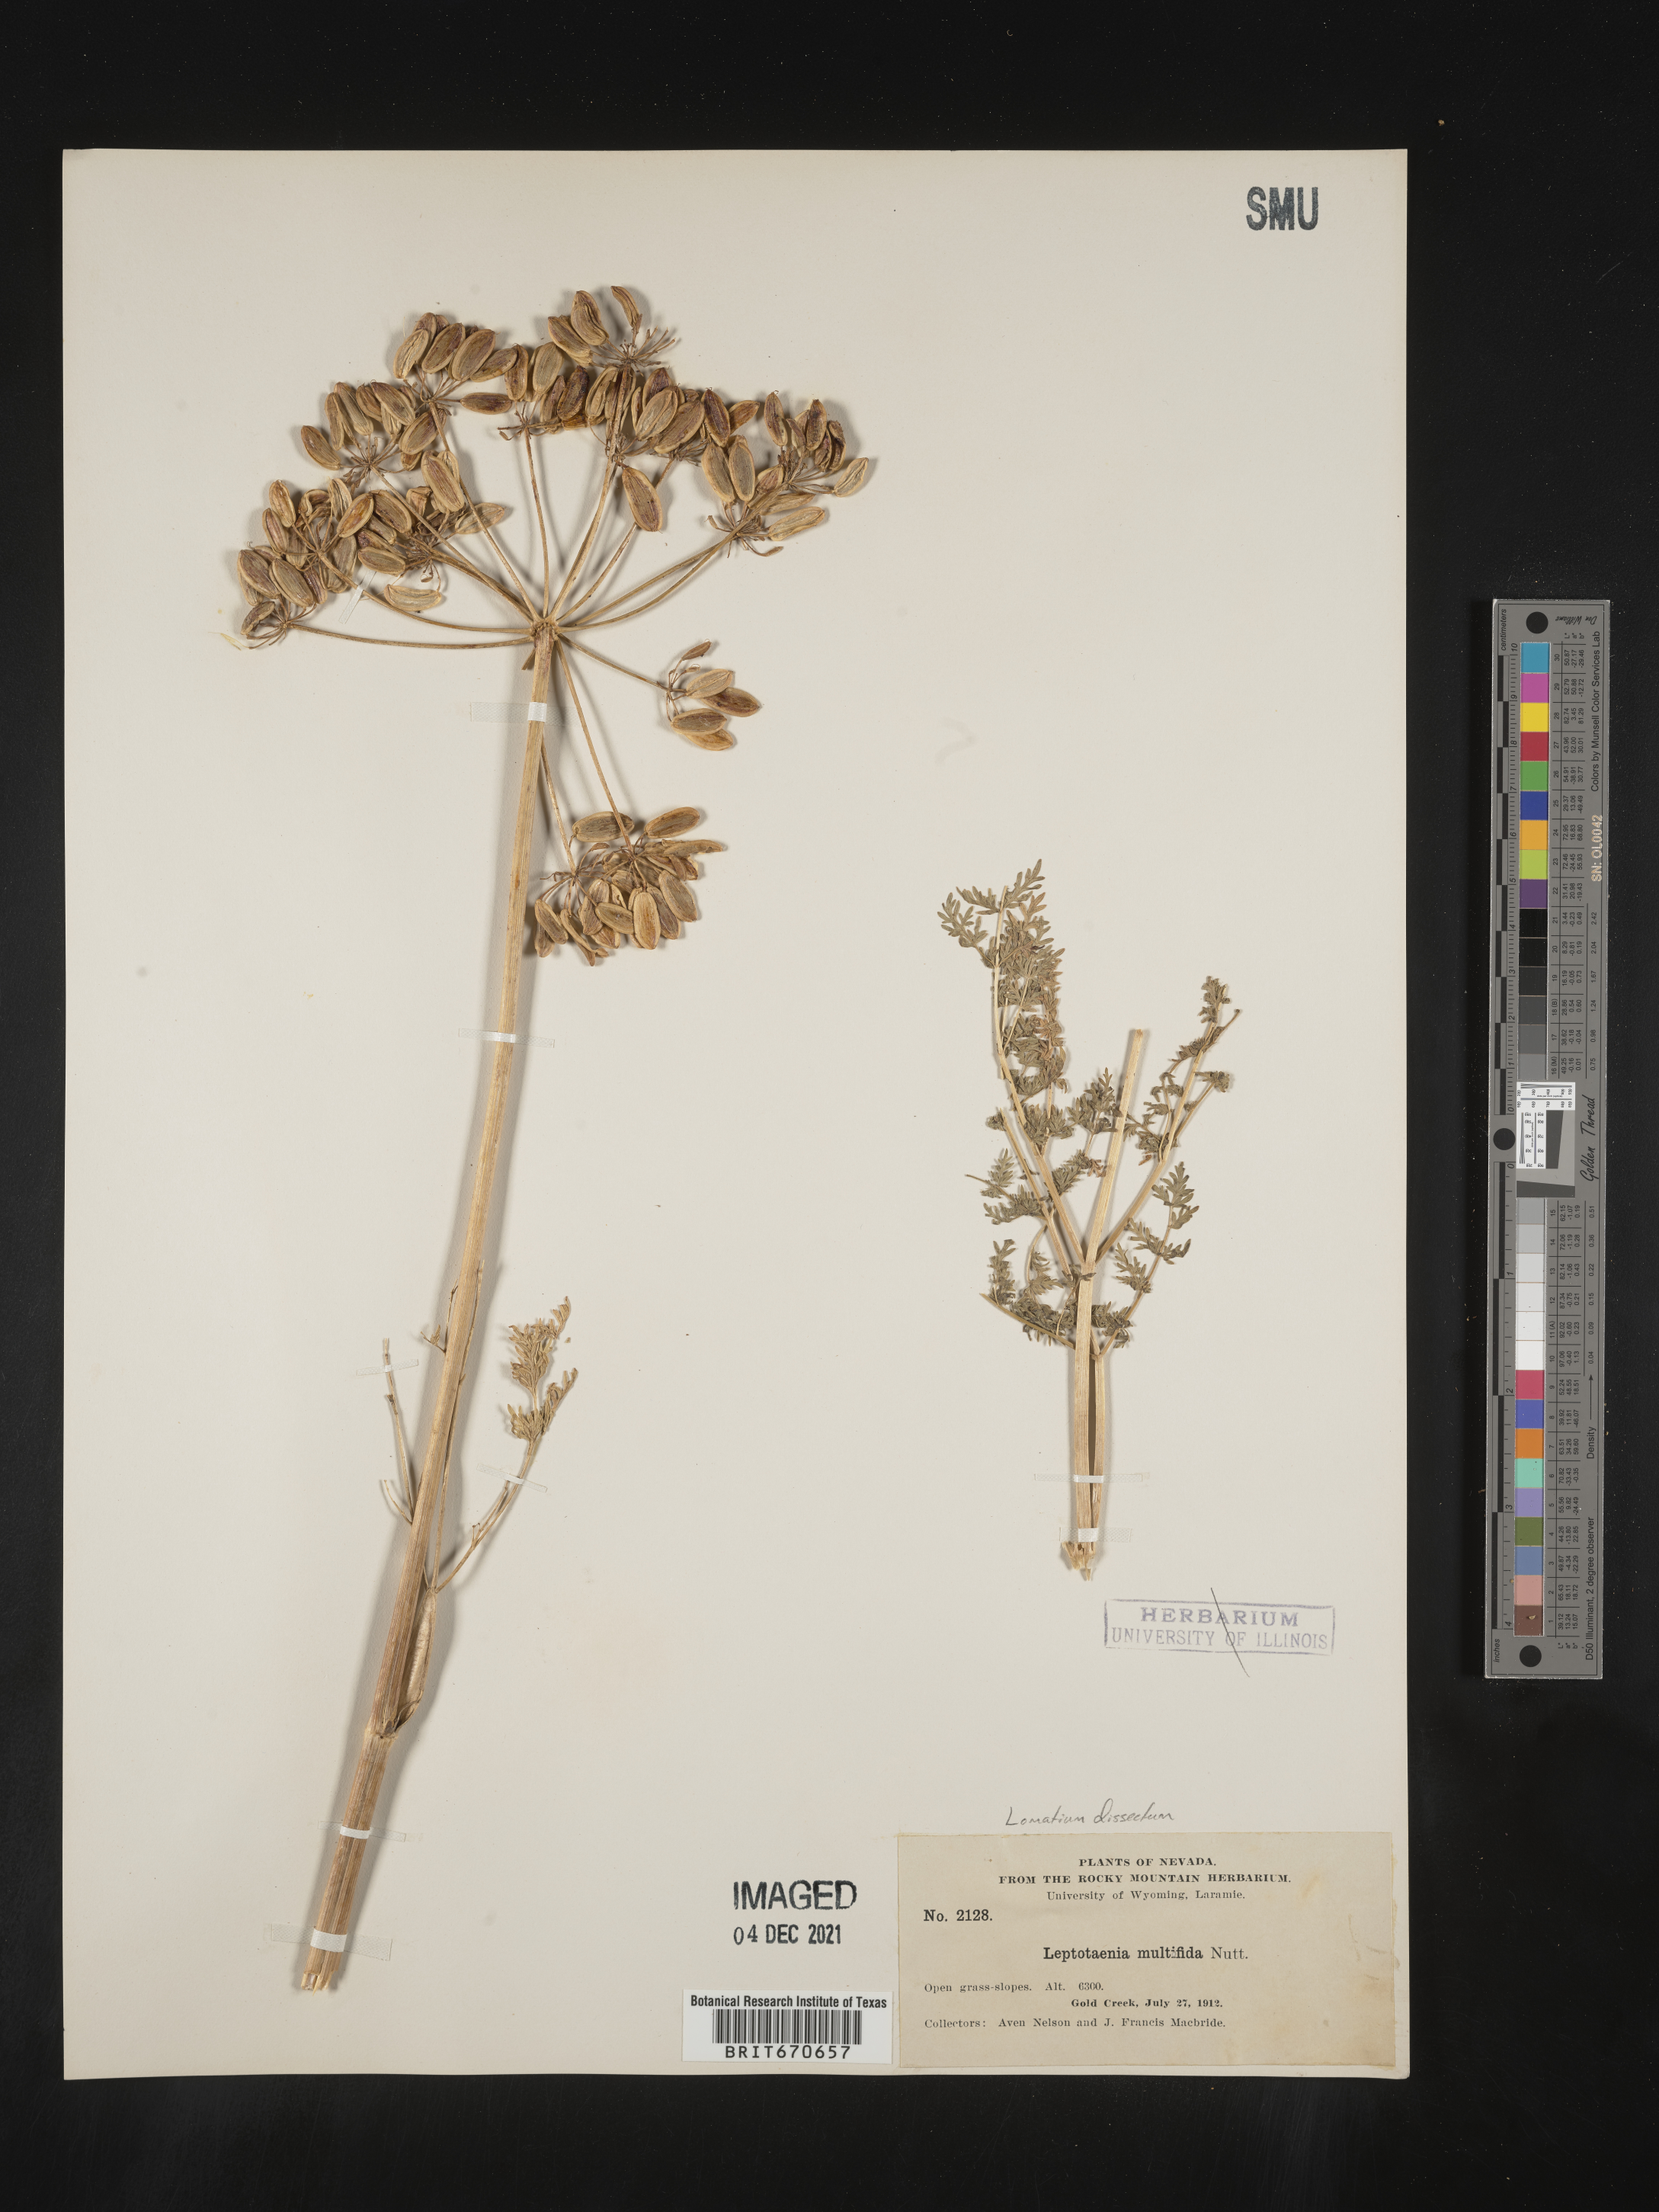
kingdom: Plantae
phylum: Tracheophyta
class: Magnoliopsida
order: Apiales
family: Apiaceae
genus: Lomatium
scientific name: Lomatium dissectum
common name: Lomatium
